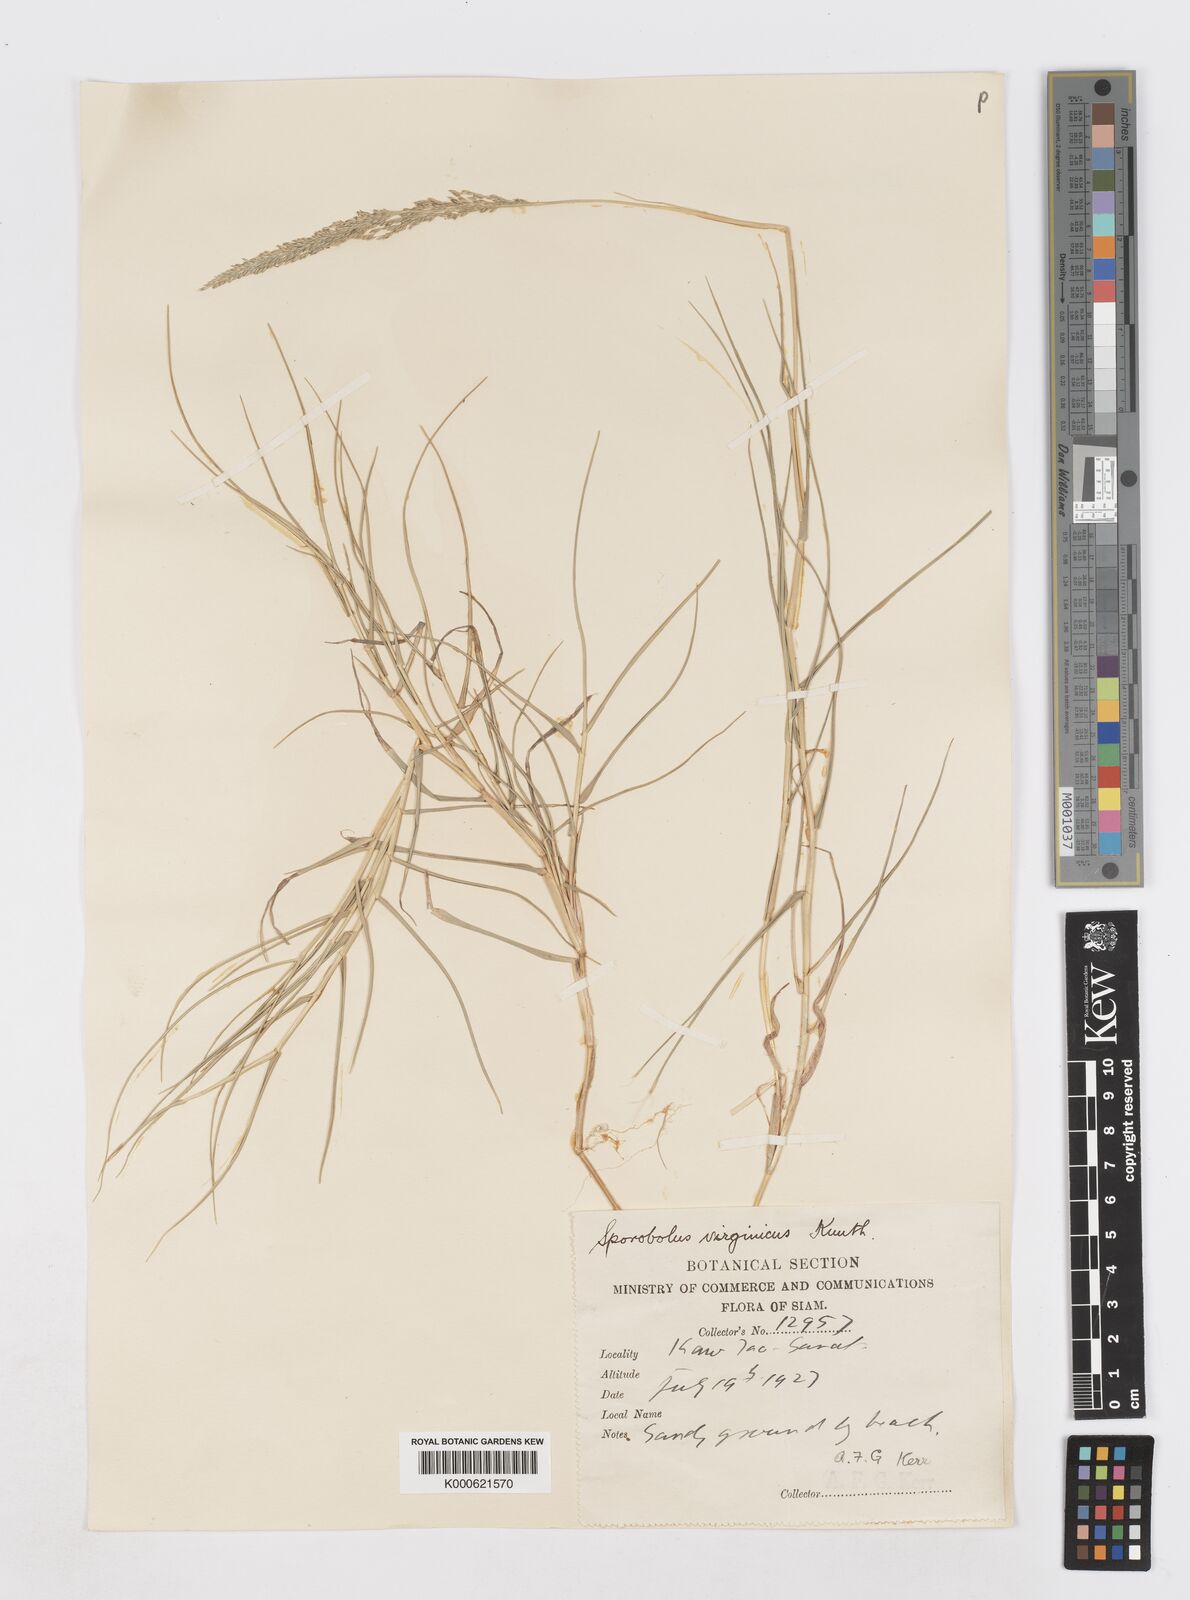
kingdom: Plantae
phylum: Tracheophyta
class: Liliopsida
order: Poales
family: Poaceae
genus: Sporobolus
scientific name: Sporobolus virginicus
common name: Beach dropseed
